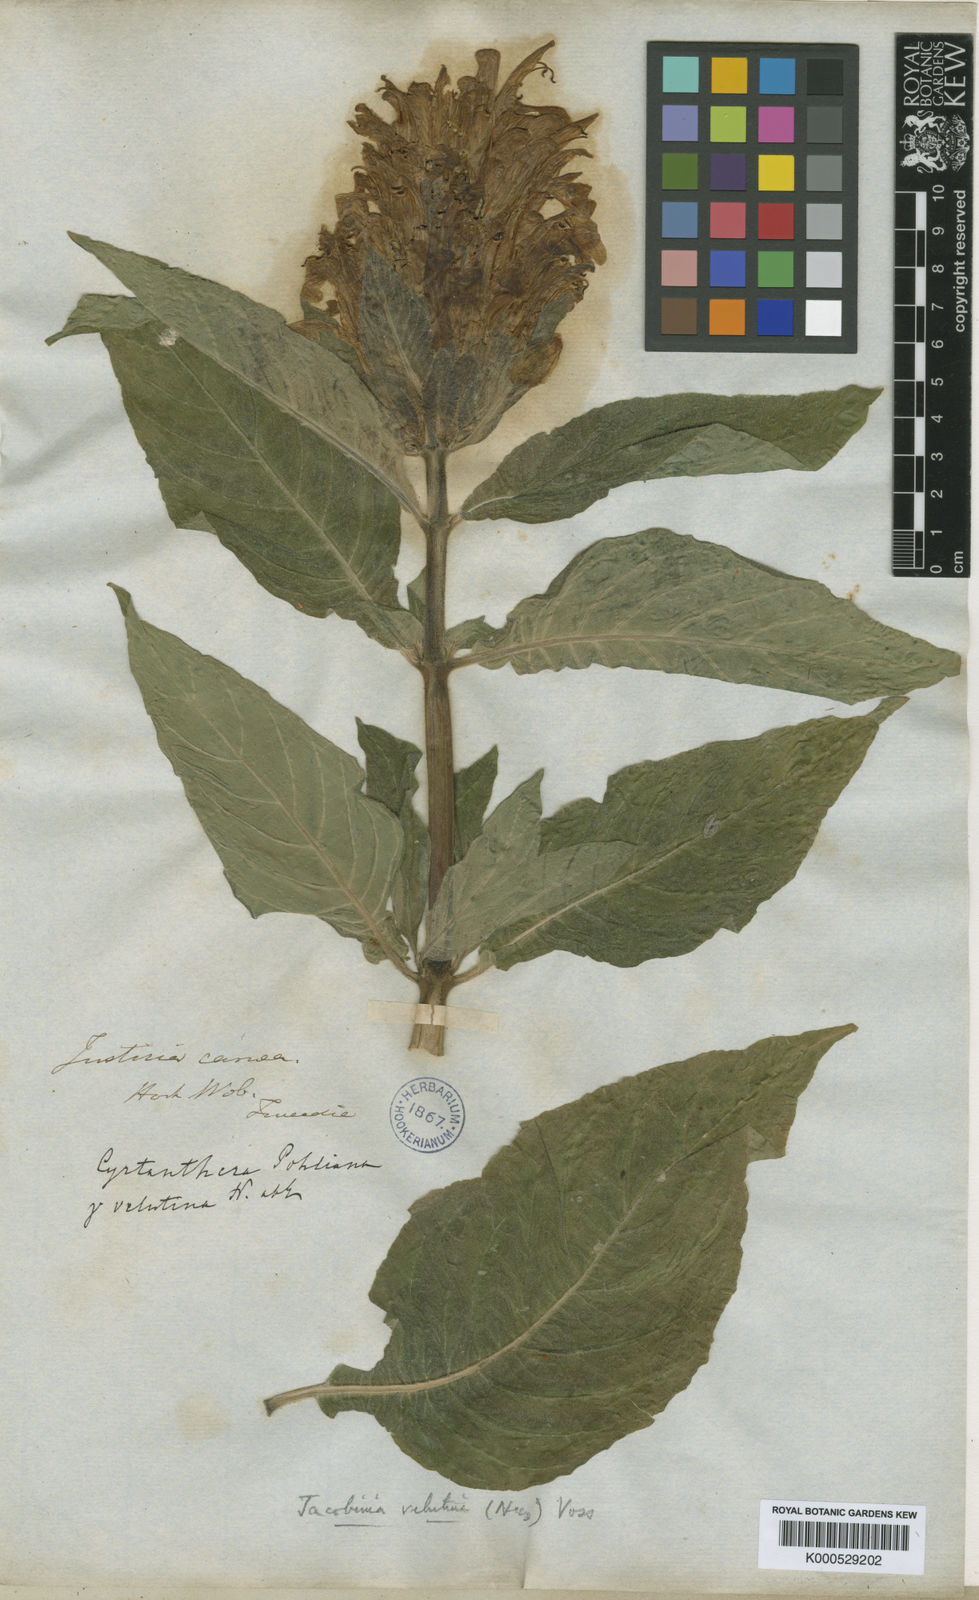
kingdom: Plantae
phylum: Tracheophyta
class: Magnoliopsida
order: Lamiales
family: Acanthaceae
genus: Justicia
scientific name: Justicia carnea
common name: Brazilian-plume
